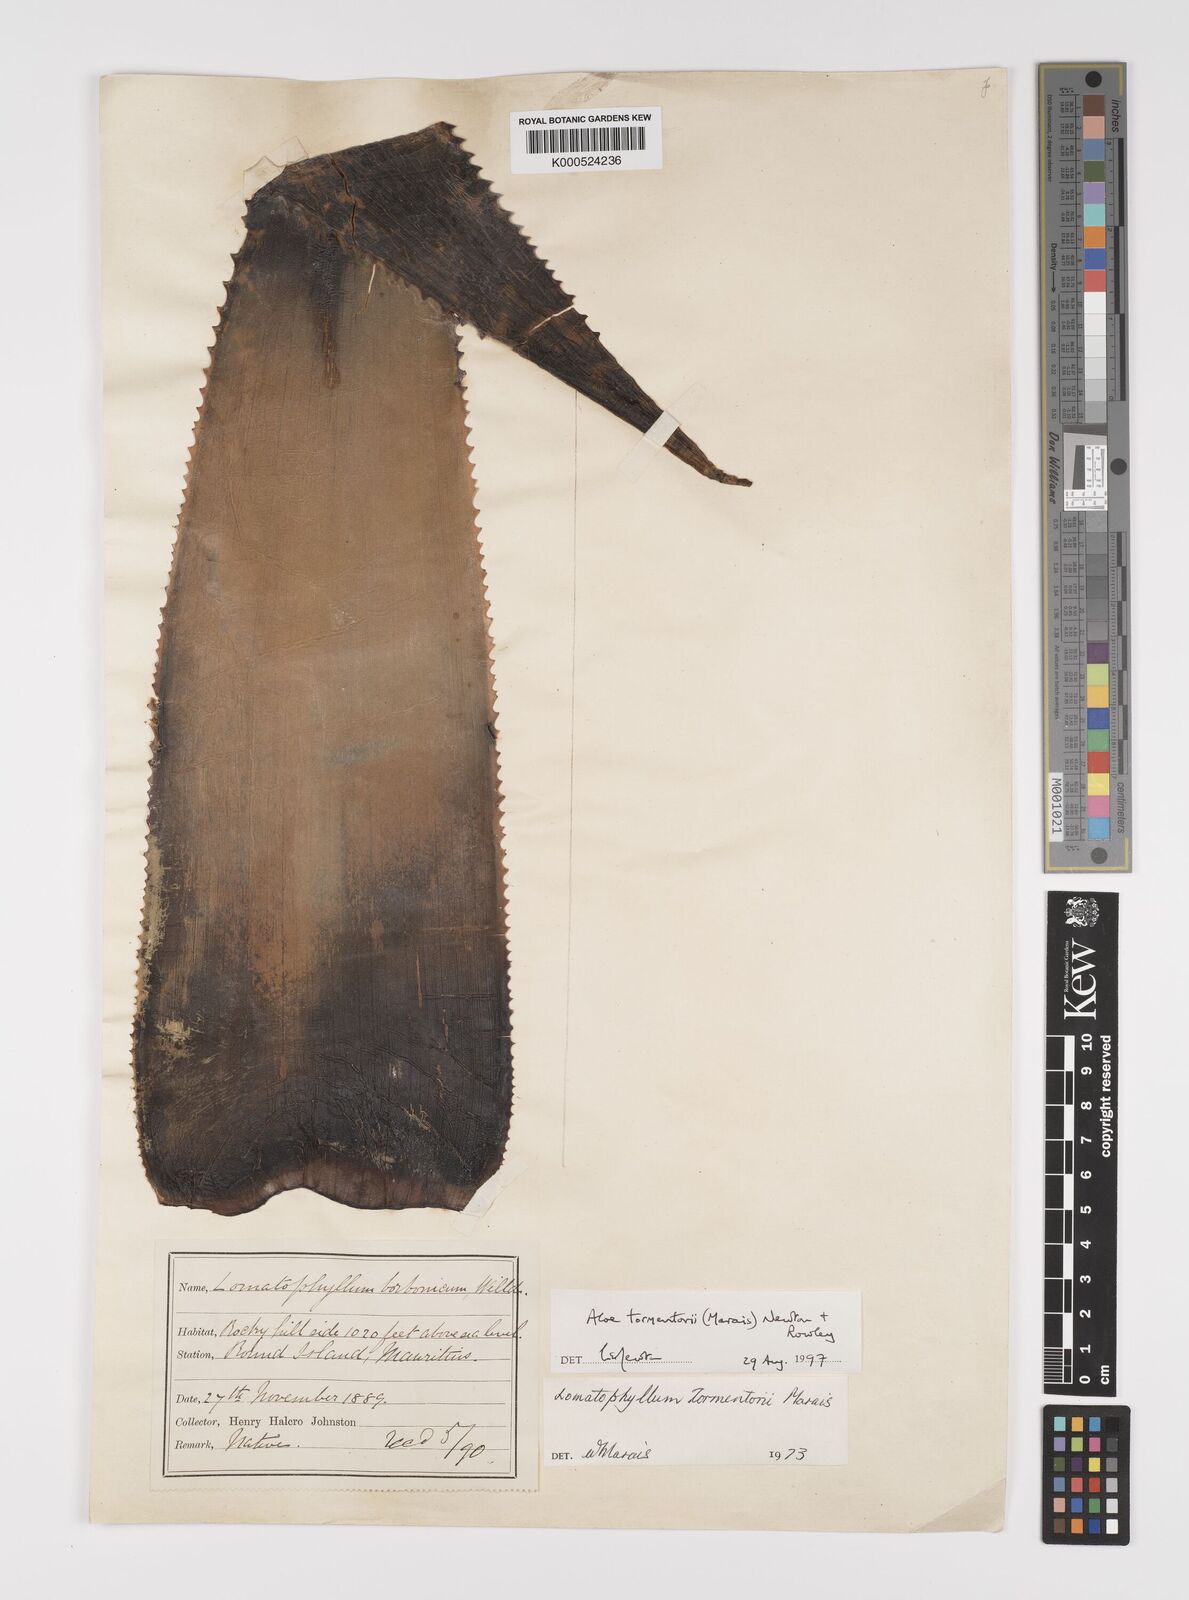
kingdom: Plantae
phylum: Tracheophyta
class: Liliopsida
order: Asparagales
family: Asphodelaceae
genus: Aloe
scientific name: Aloe tormentorii
